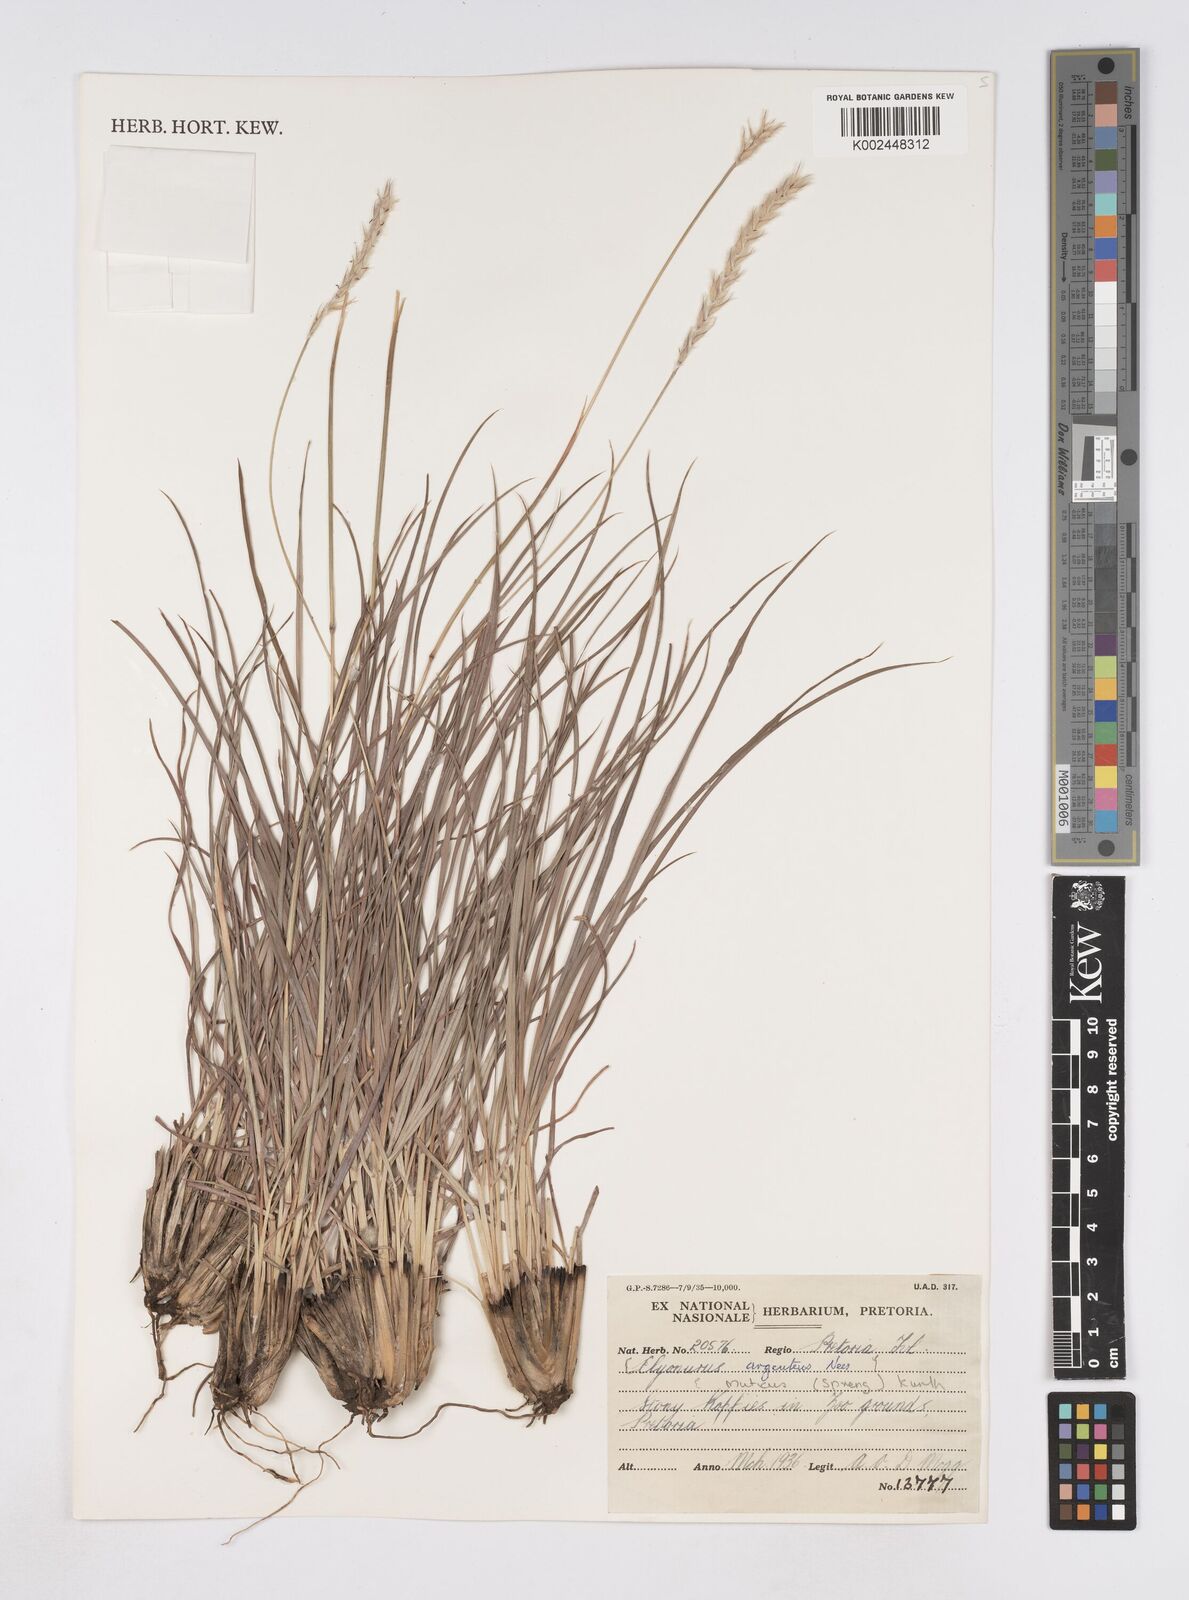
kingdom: Plantae
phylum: Tracheophyta
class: Liliopsida
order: Poales
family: Poaceae
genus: Elionurus
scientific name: Elionurus muticus
